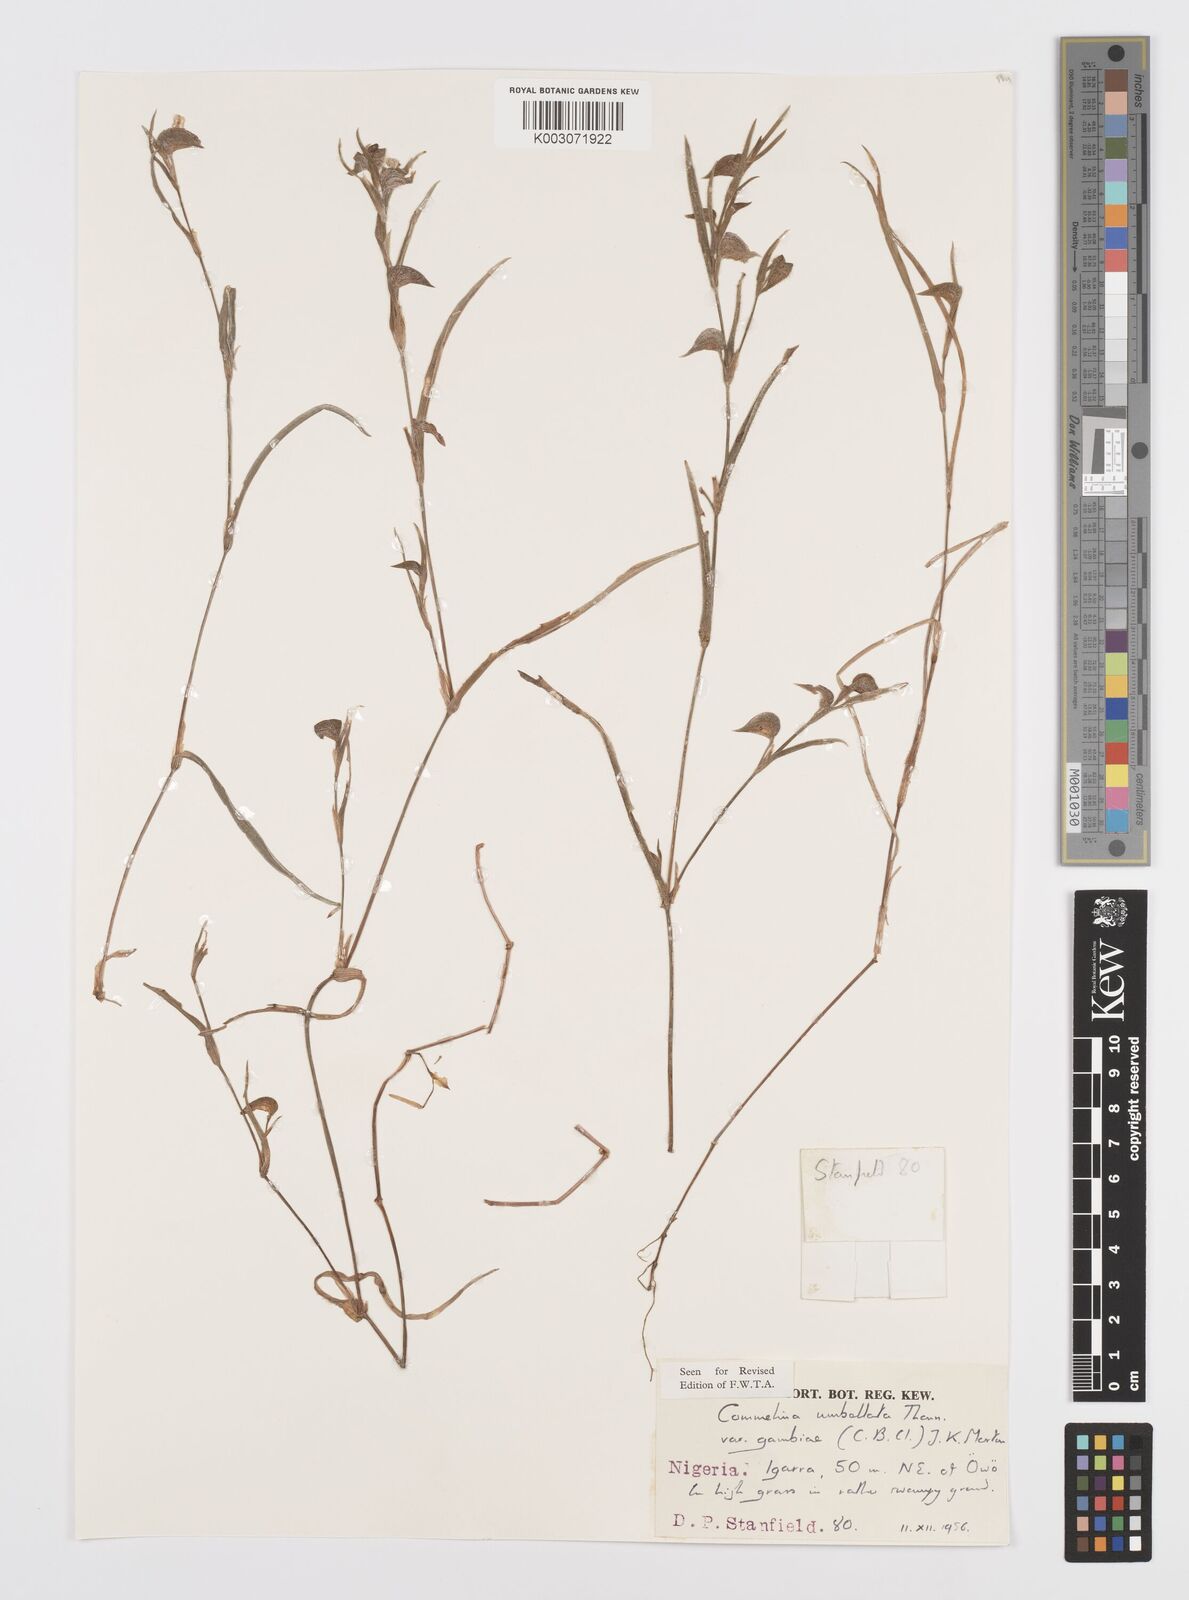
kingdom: Plantae
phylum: Tracheophyta
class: Liliopsida
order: Commelinales
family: Commelinaceae
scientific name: Commelinaceae
